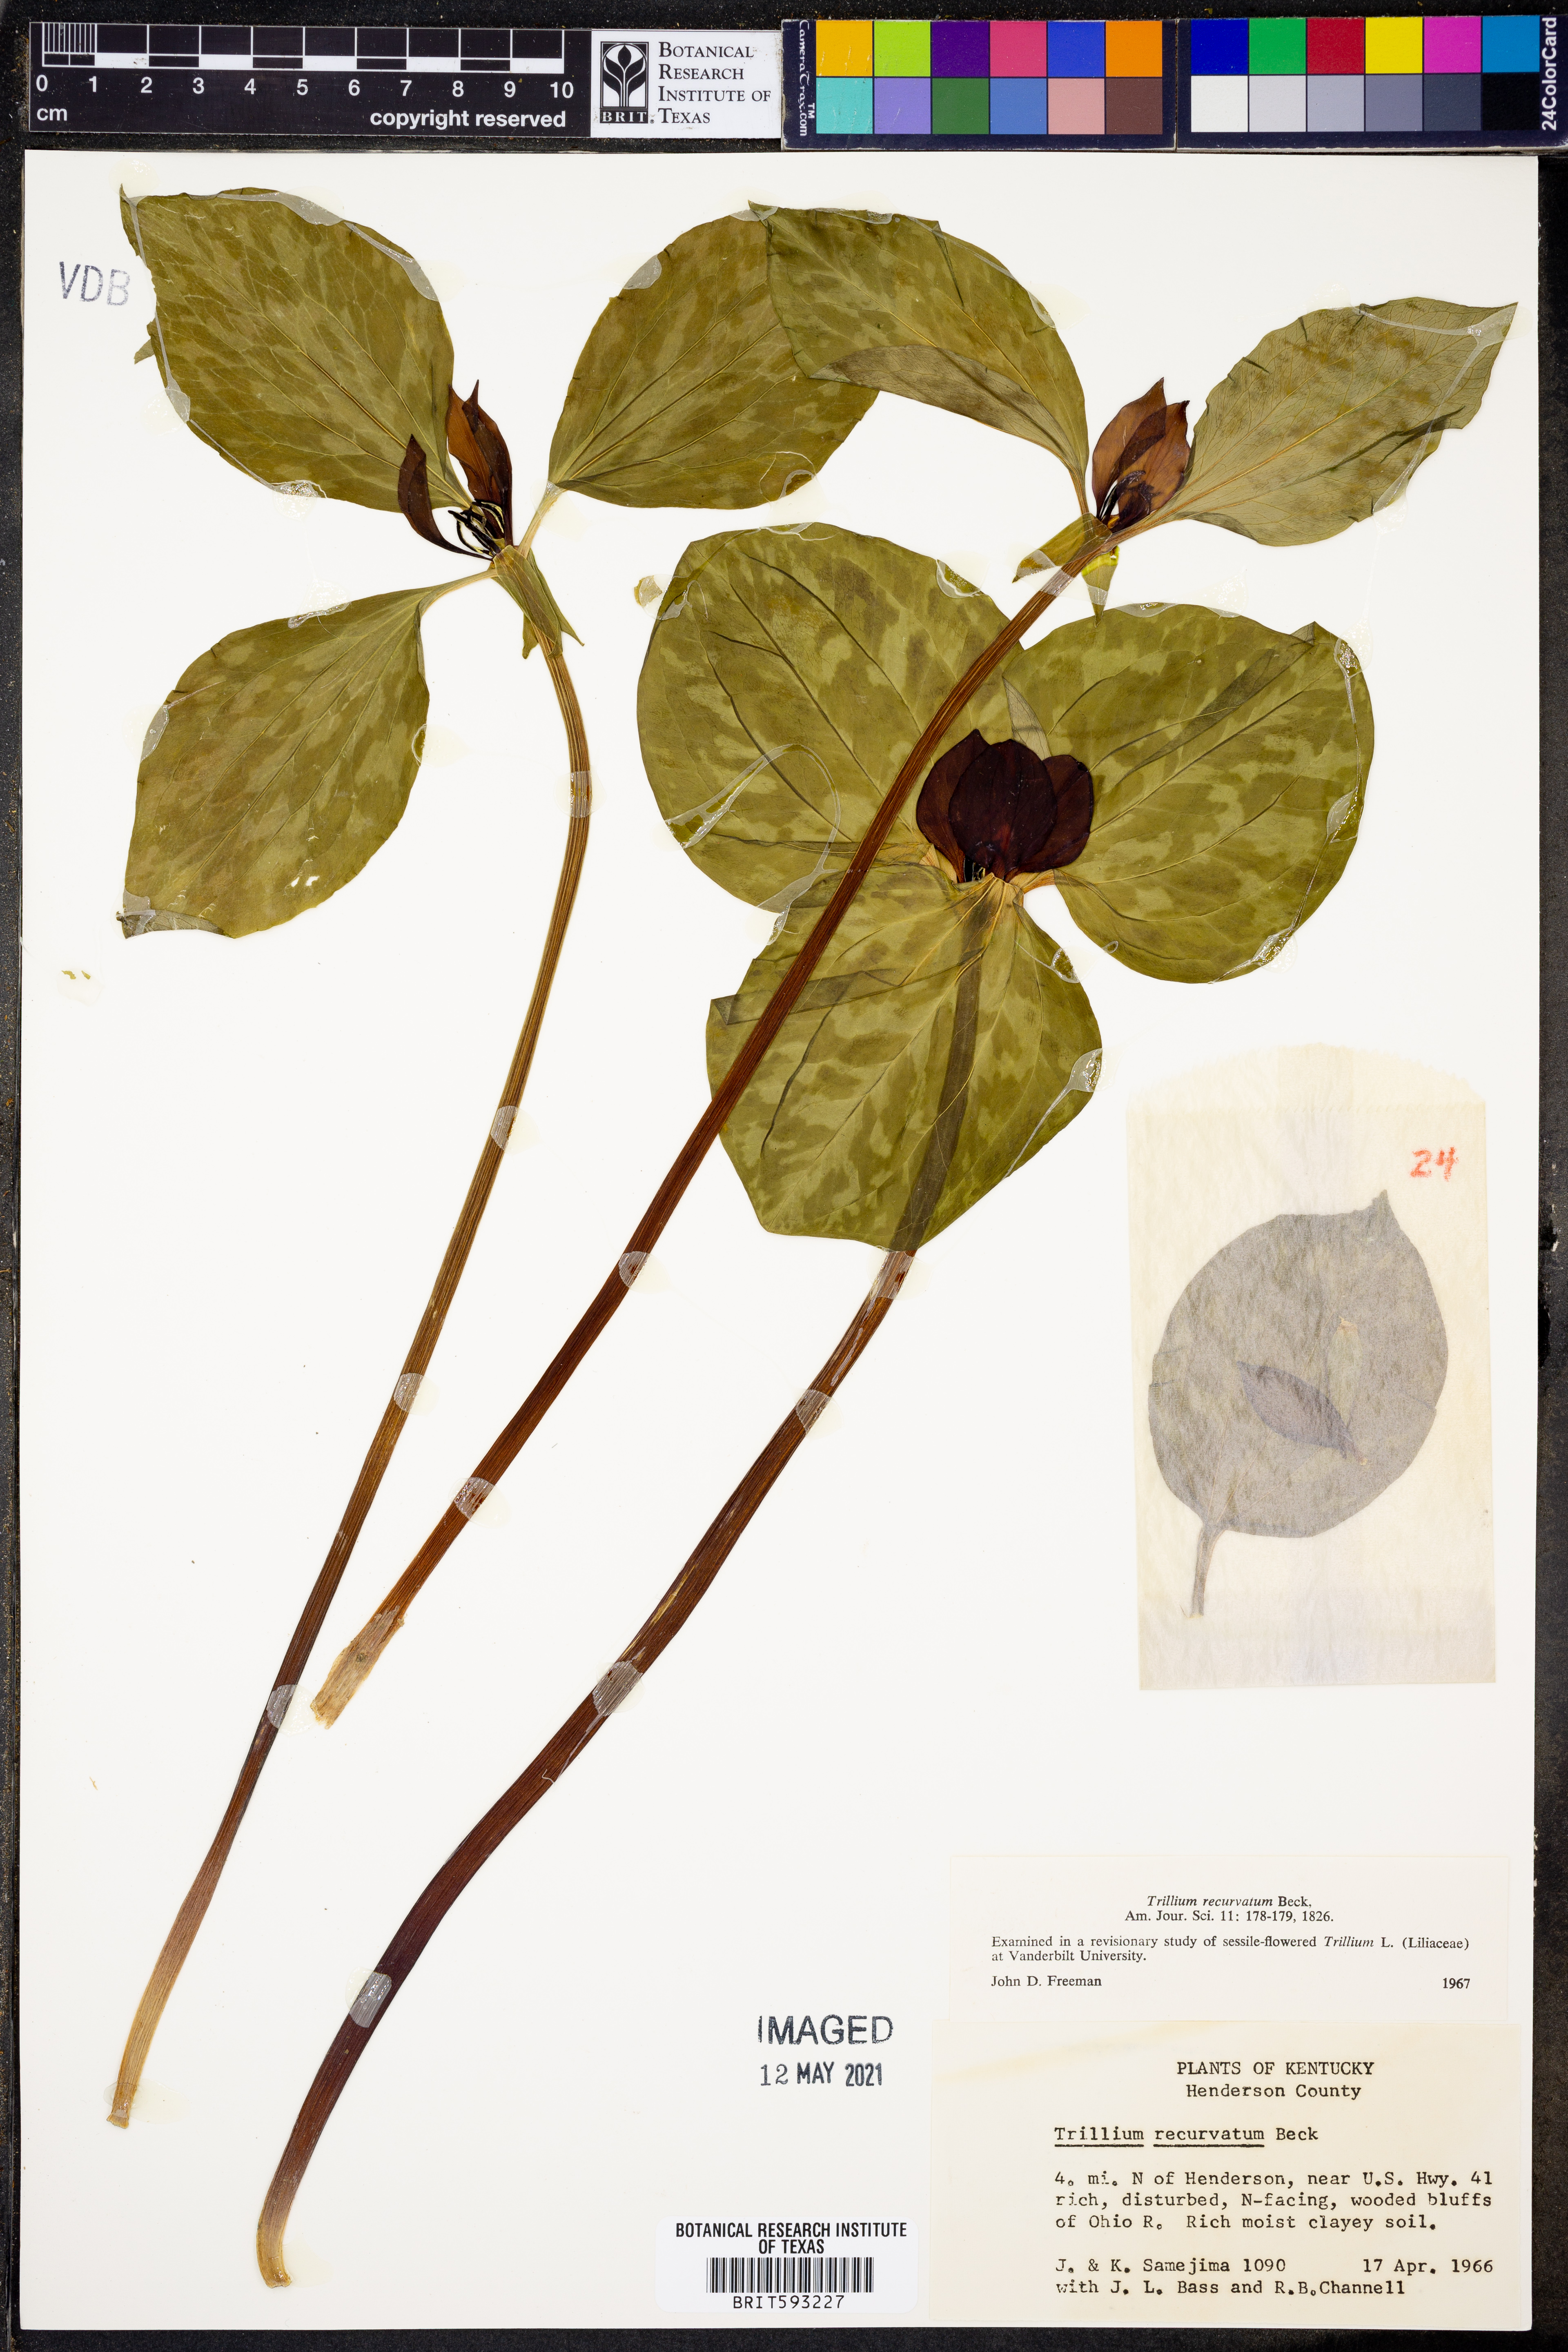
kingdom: Plantae
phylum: Tracheophyta
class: Liliopsida
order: Liliales
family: Melanthiaceae
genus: Trillium
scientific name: Trillium recurvatum
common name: Bloody butcher
